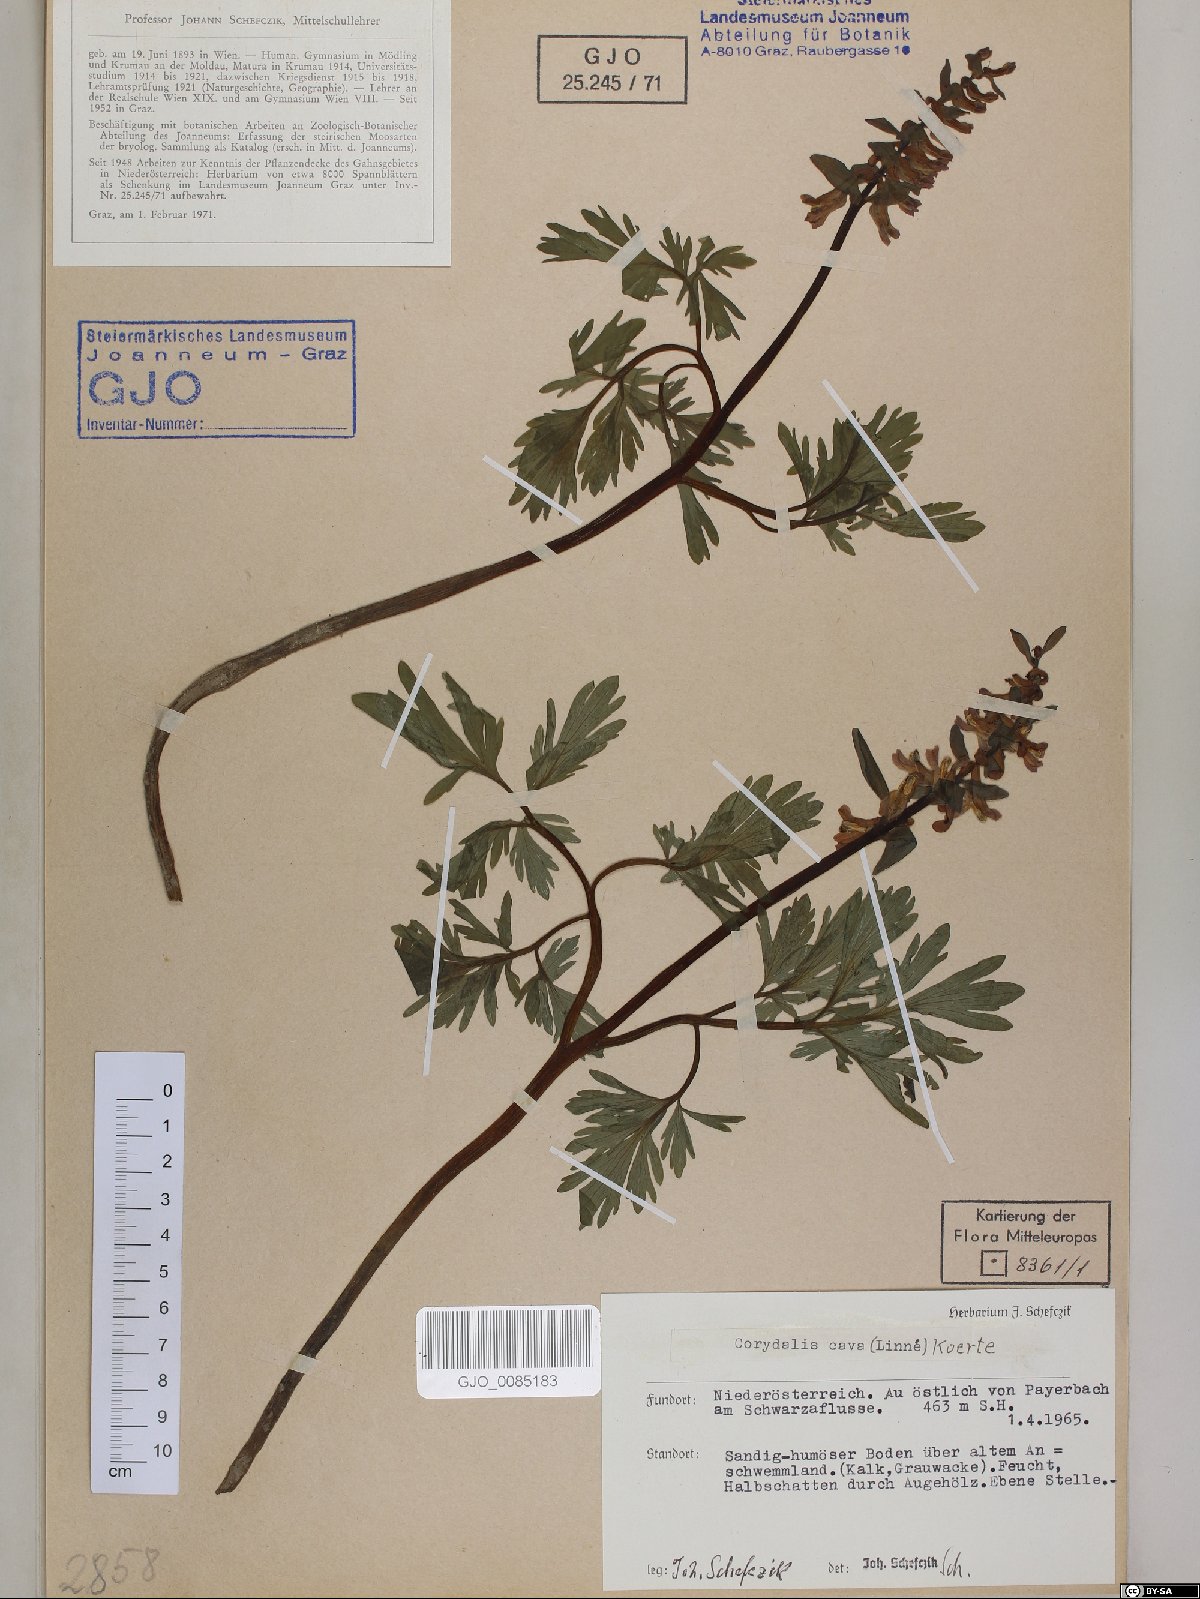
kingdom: Plantae
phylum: Tracheophyta
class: Magnoliopsida
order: Ranunculales
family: Papaveraceae
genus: Corydalis
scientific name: Corydalis cava
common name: Hollowroot
